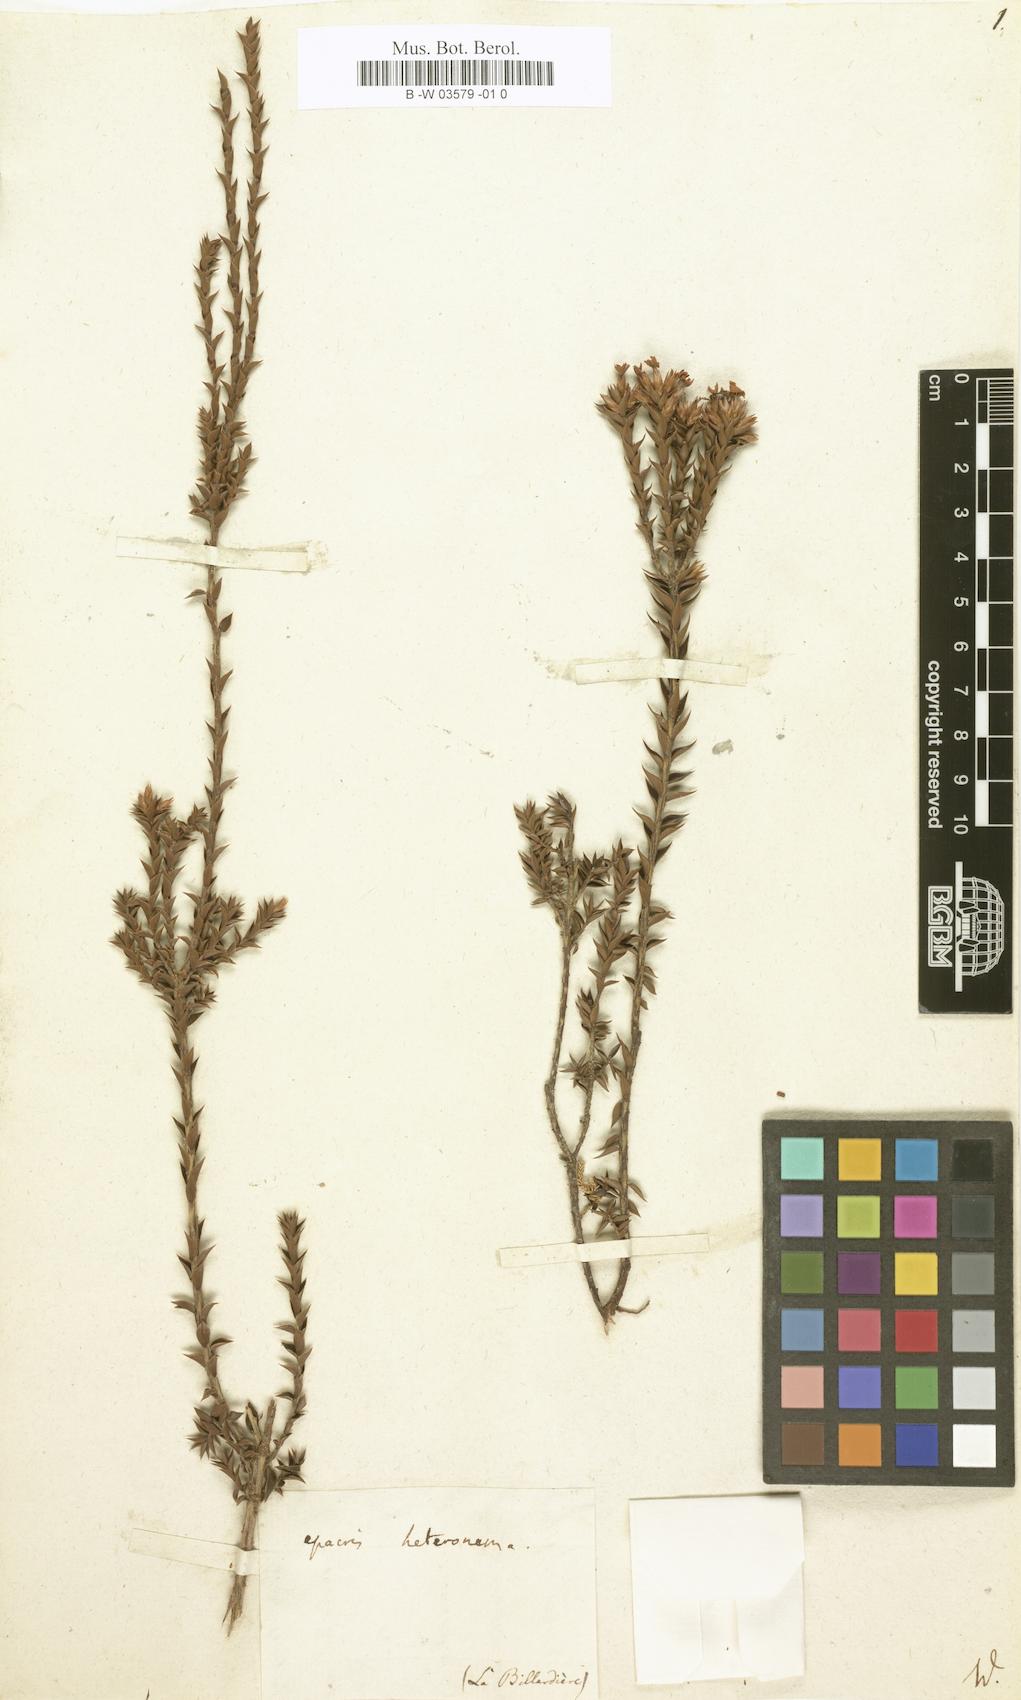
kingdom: Plantae
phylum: Tracheophyta
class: Magnoliopsida
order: Ericales
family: Ericaceae
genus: Epacris
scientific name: Epacris heteronema
